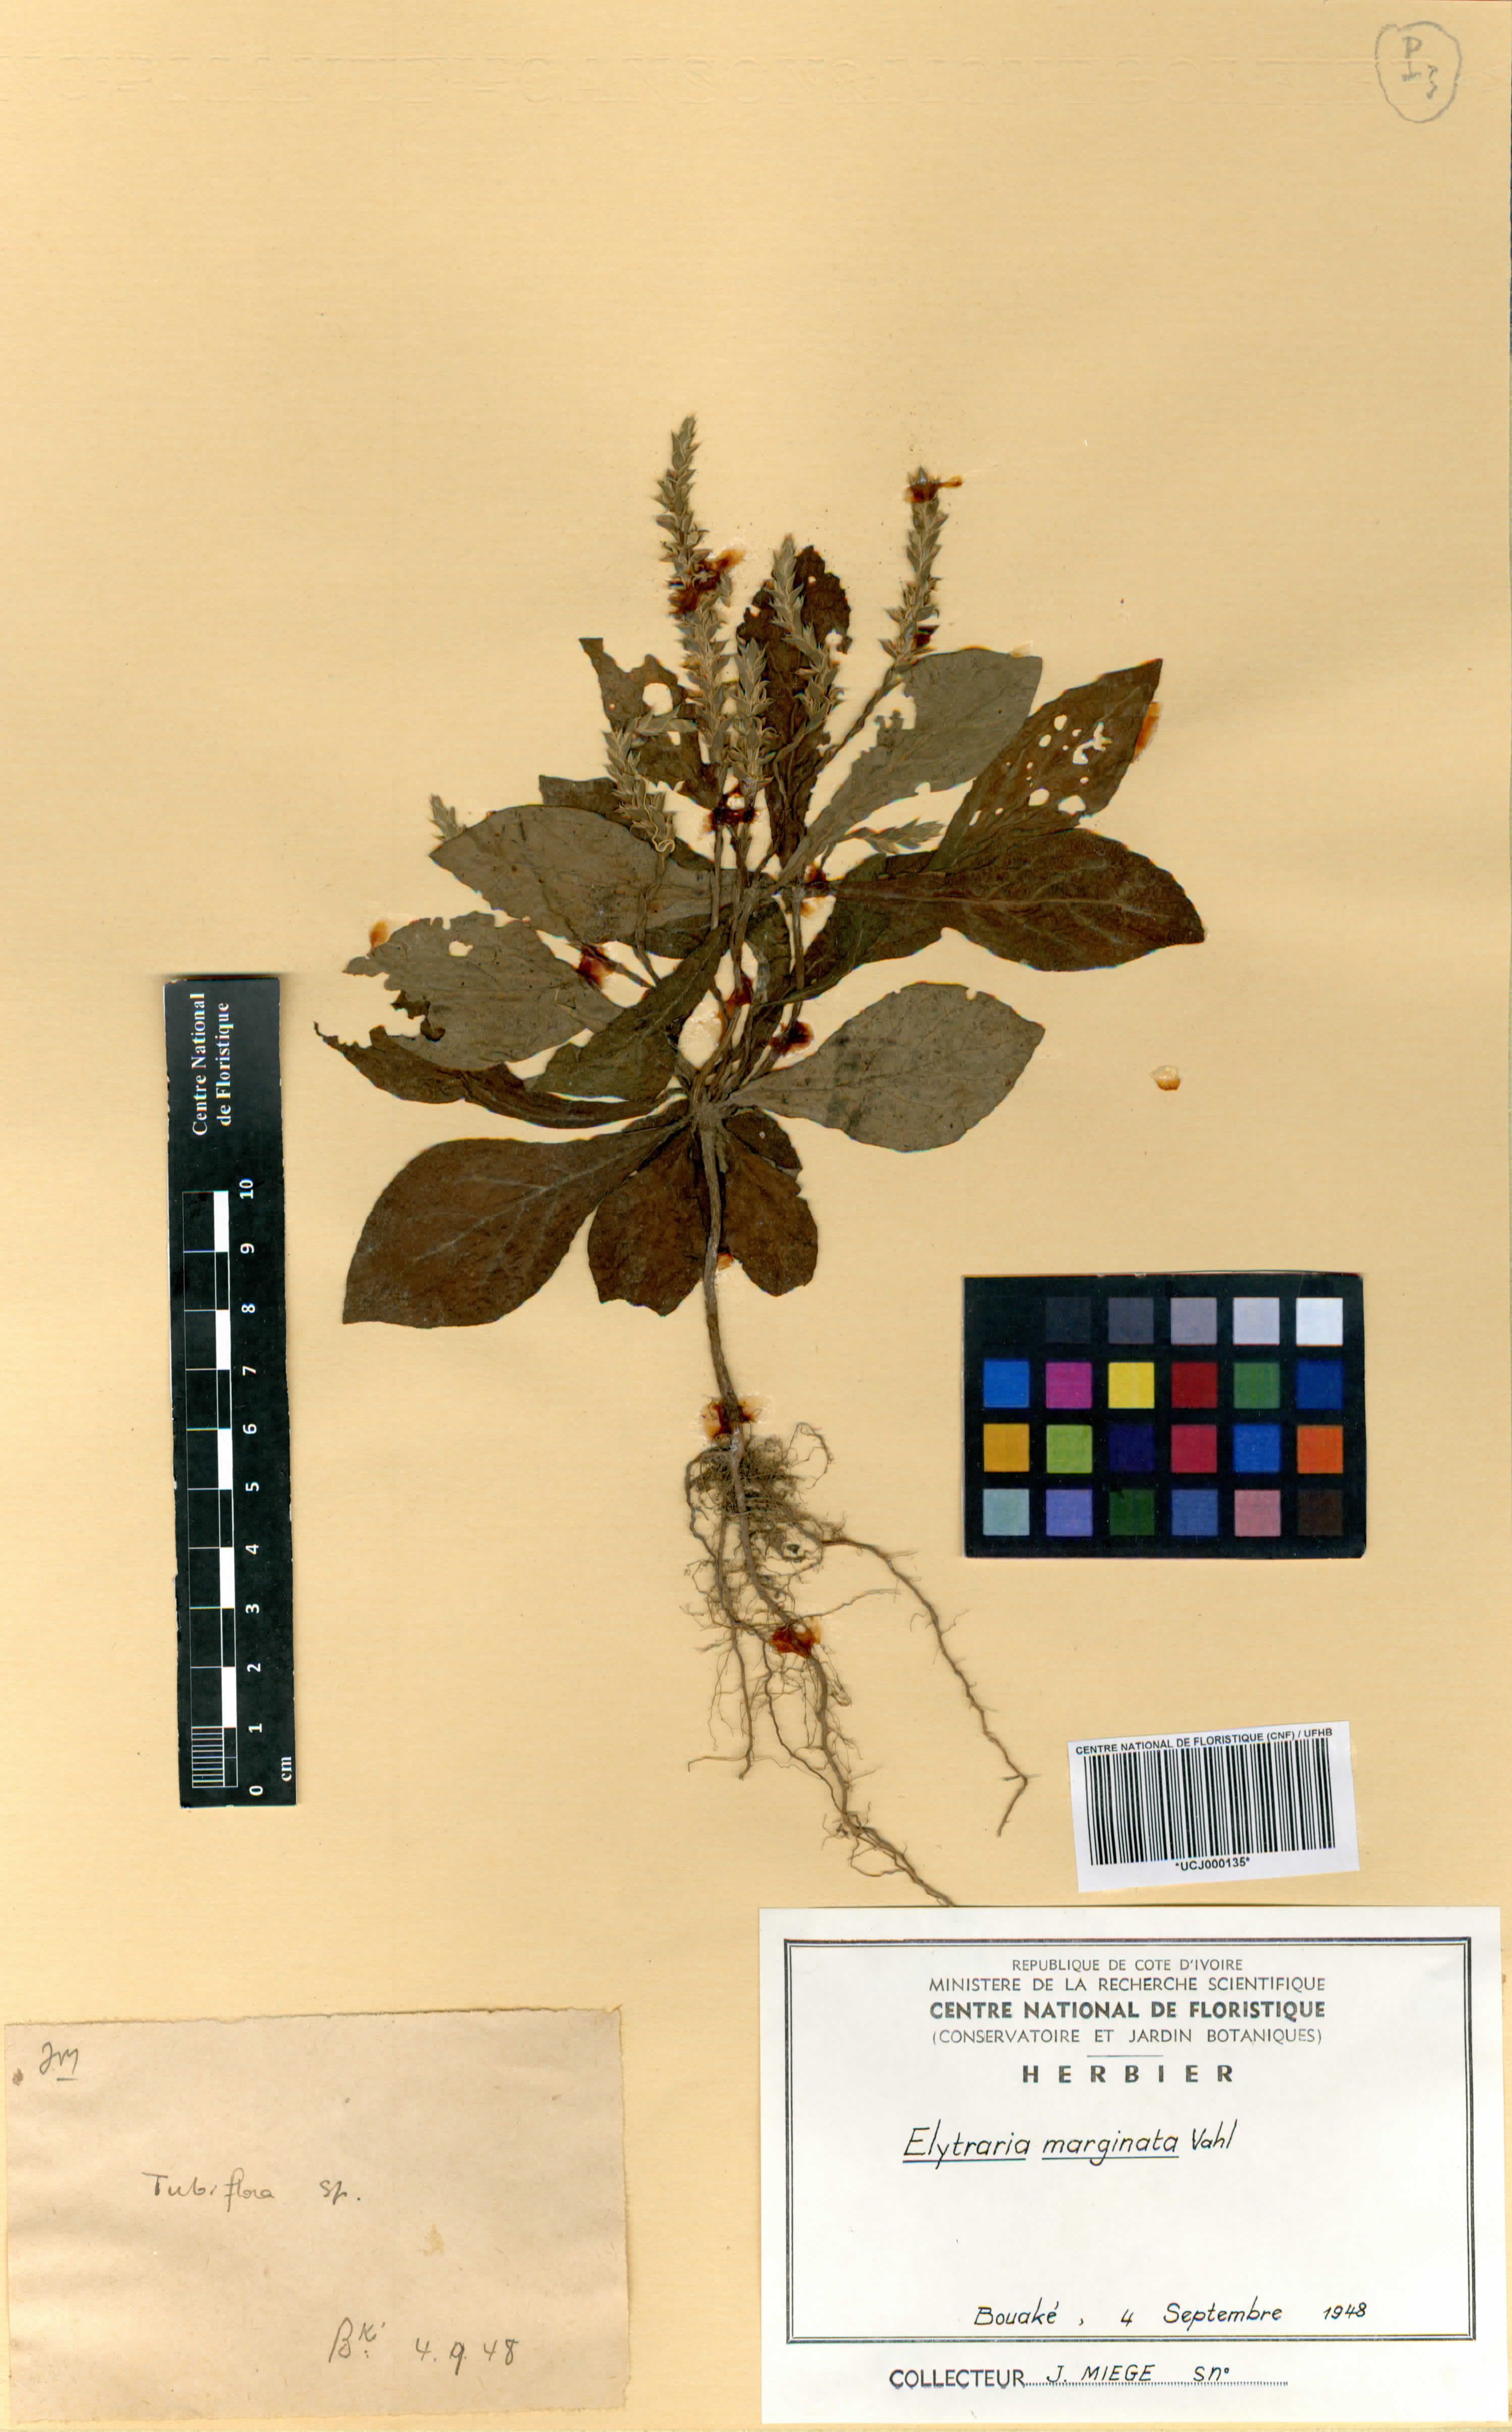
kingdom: Plantae
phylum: Tracheophyta
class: Magnoliopsida
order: Lamiales
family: Acanthaceae
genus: Elytraria
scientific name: Elytraria marginata
